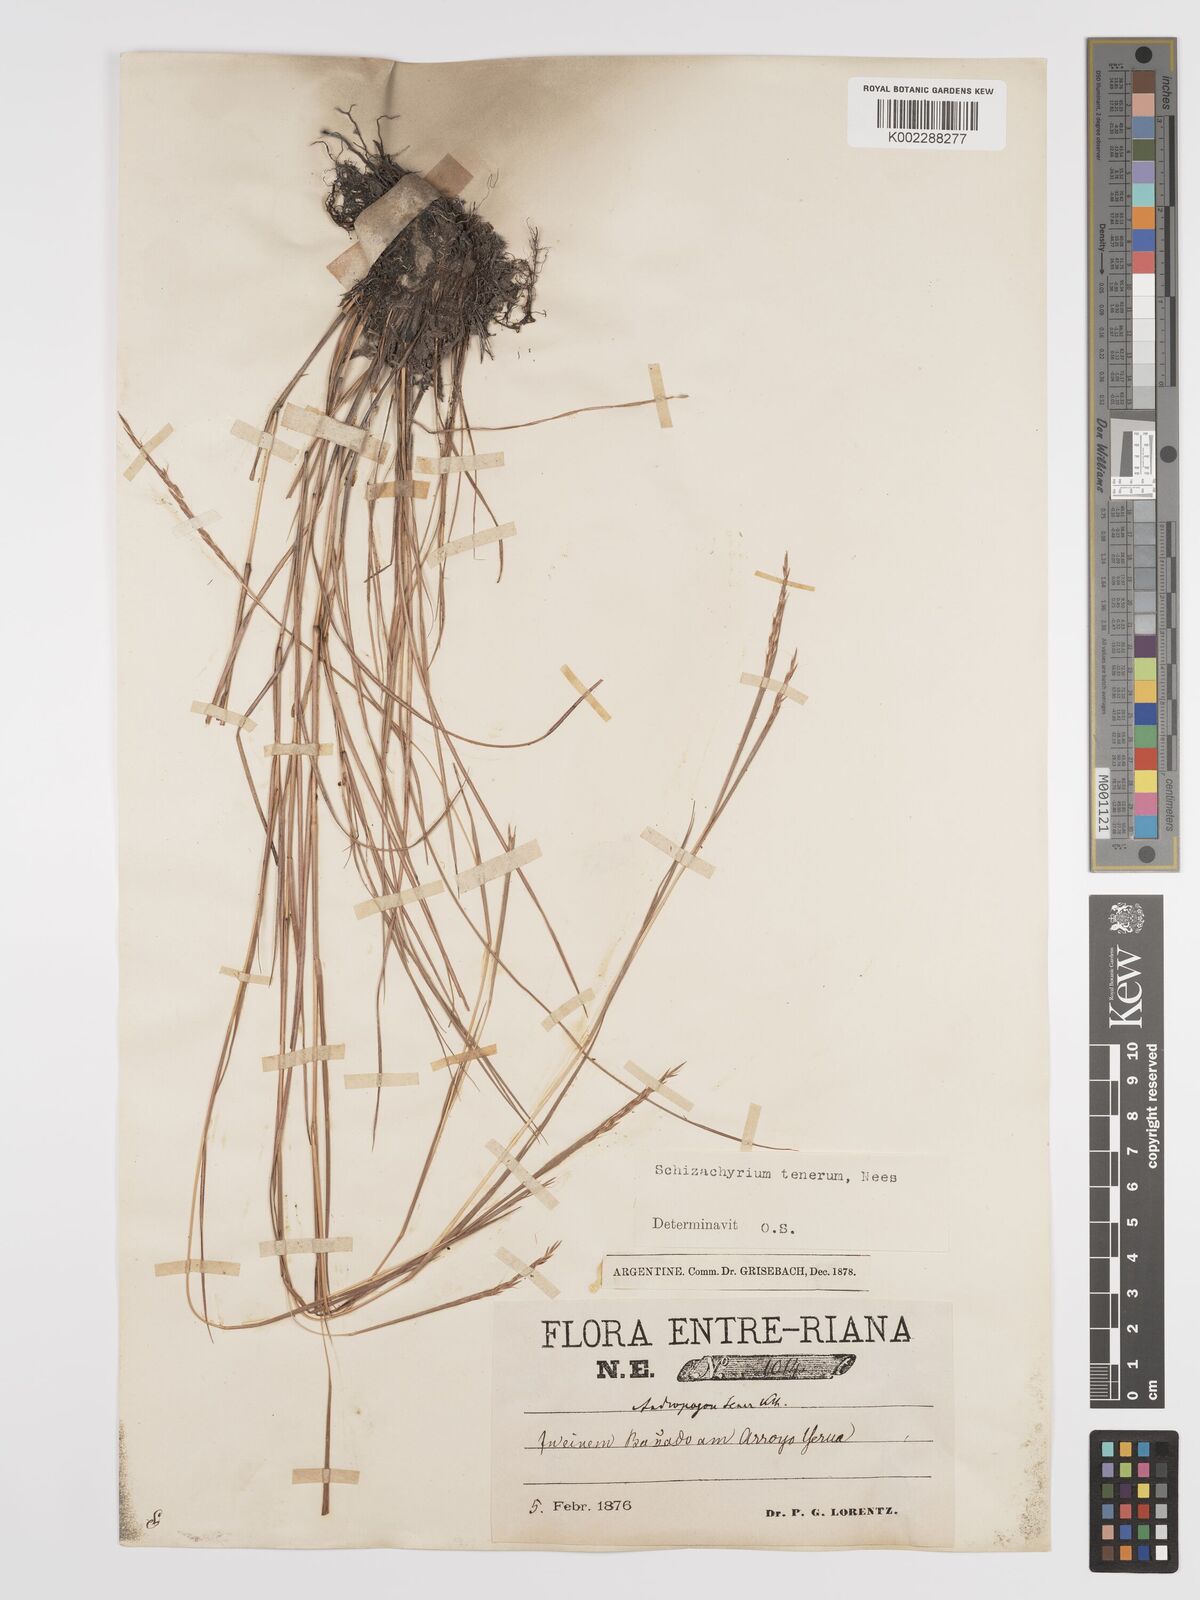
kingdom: Plantae
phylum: Tracheophyta
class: Liliopsida
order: Poales
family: Poaceae
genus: Andropogon
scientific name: Andropogon tener
